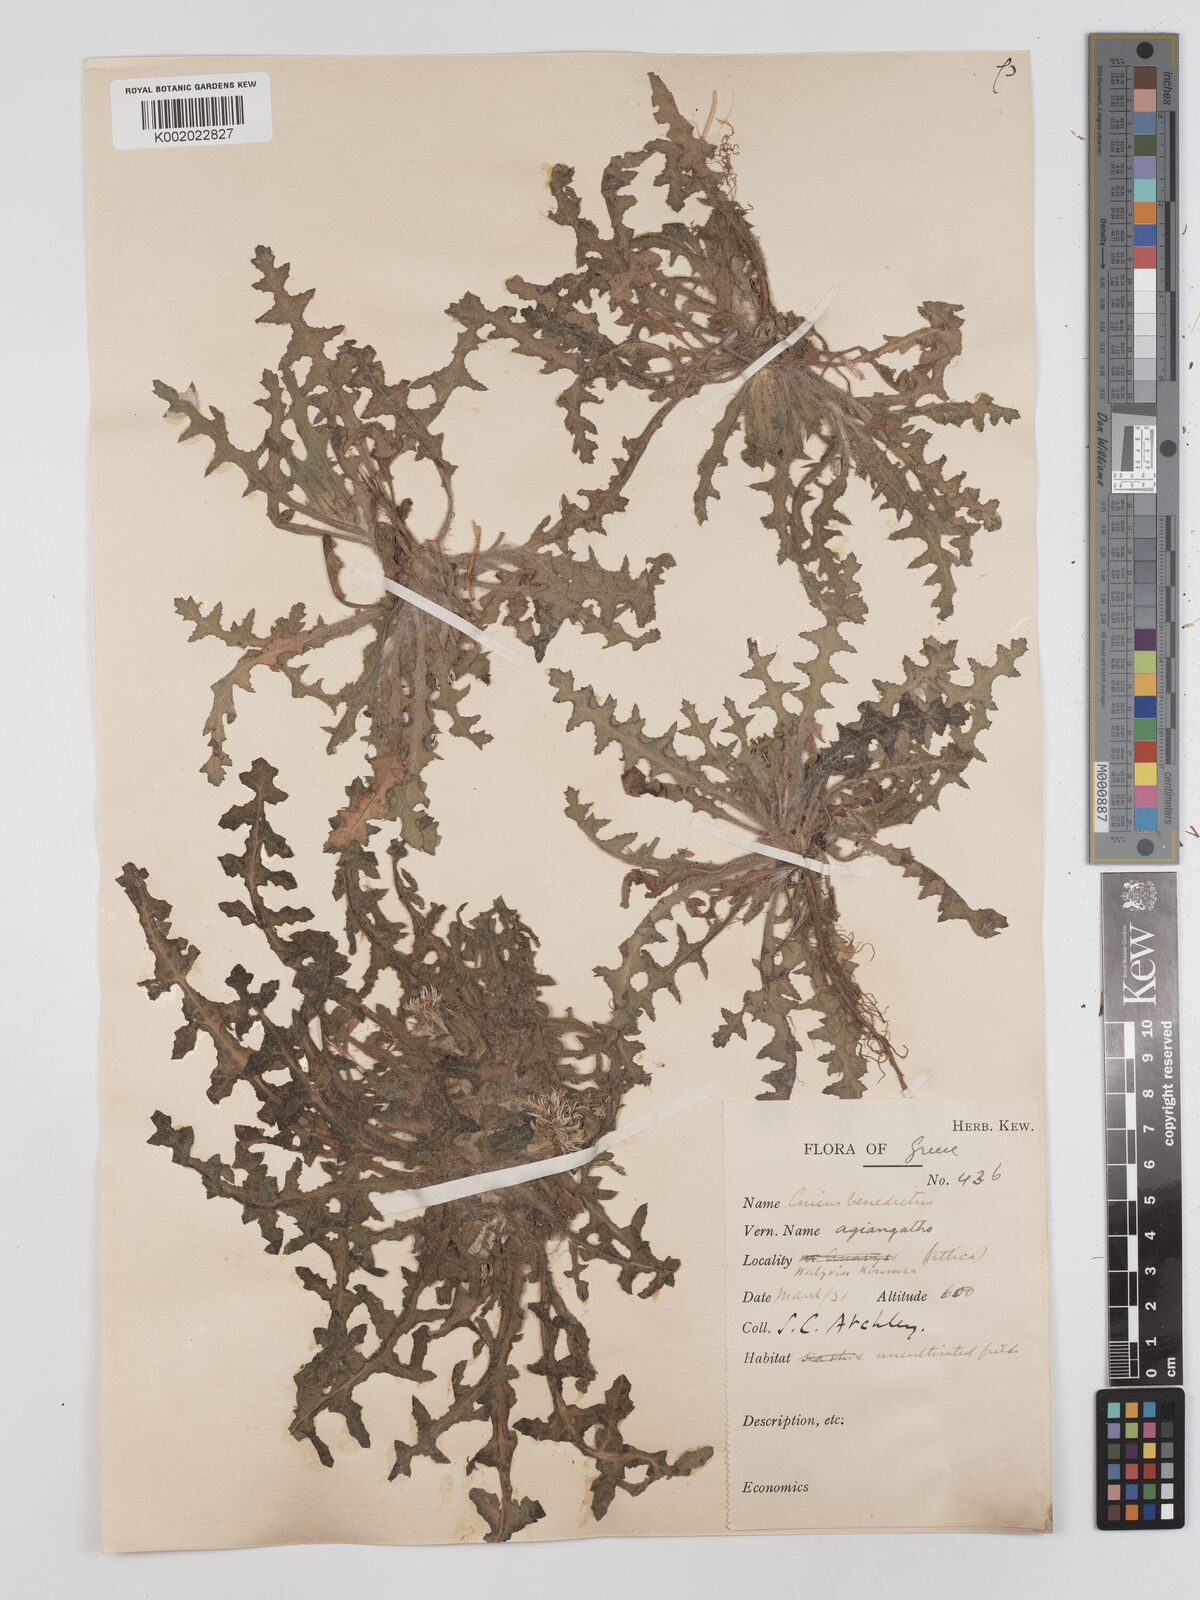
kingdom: Plantae
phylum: Tracheophyta
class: Magnoliopsida
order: Asterales
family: Asteraceae
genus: Centaurea
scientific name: Centaurea benedicta
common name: Blessed thistle
